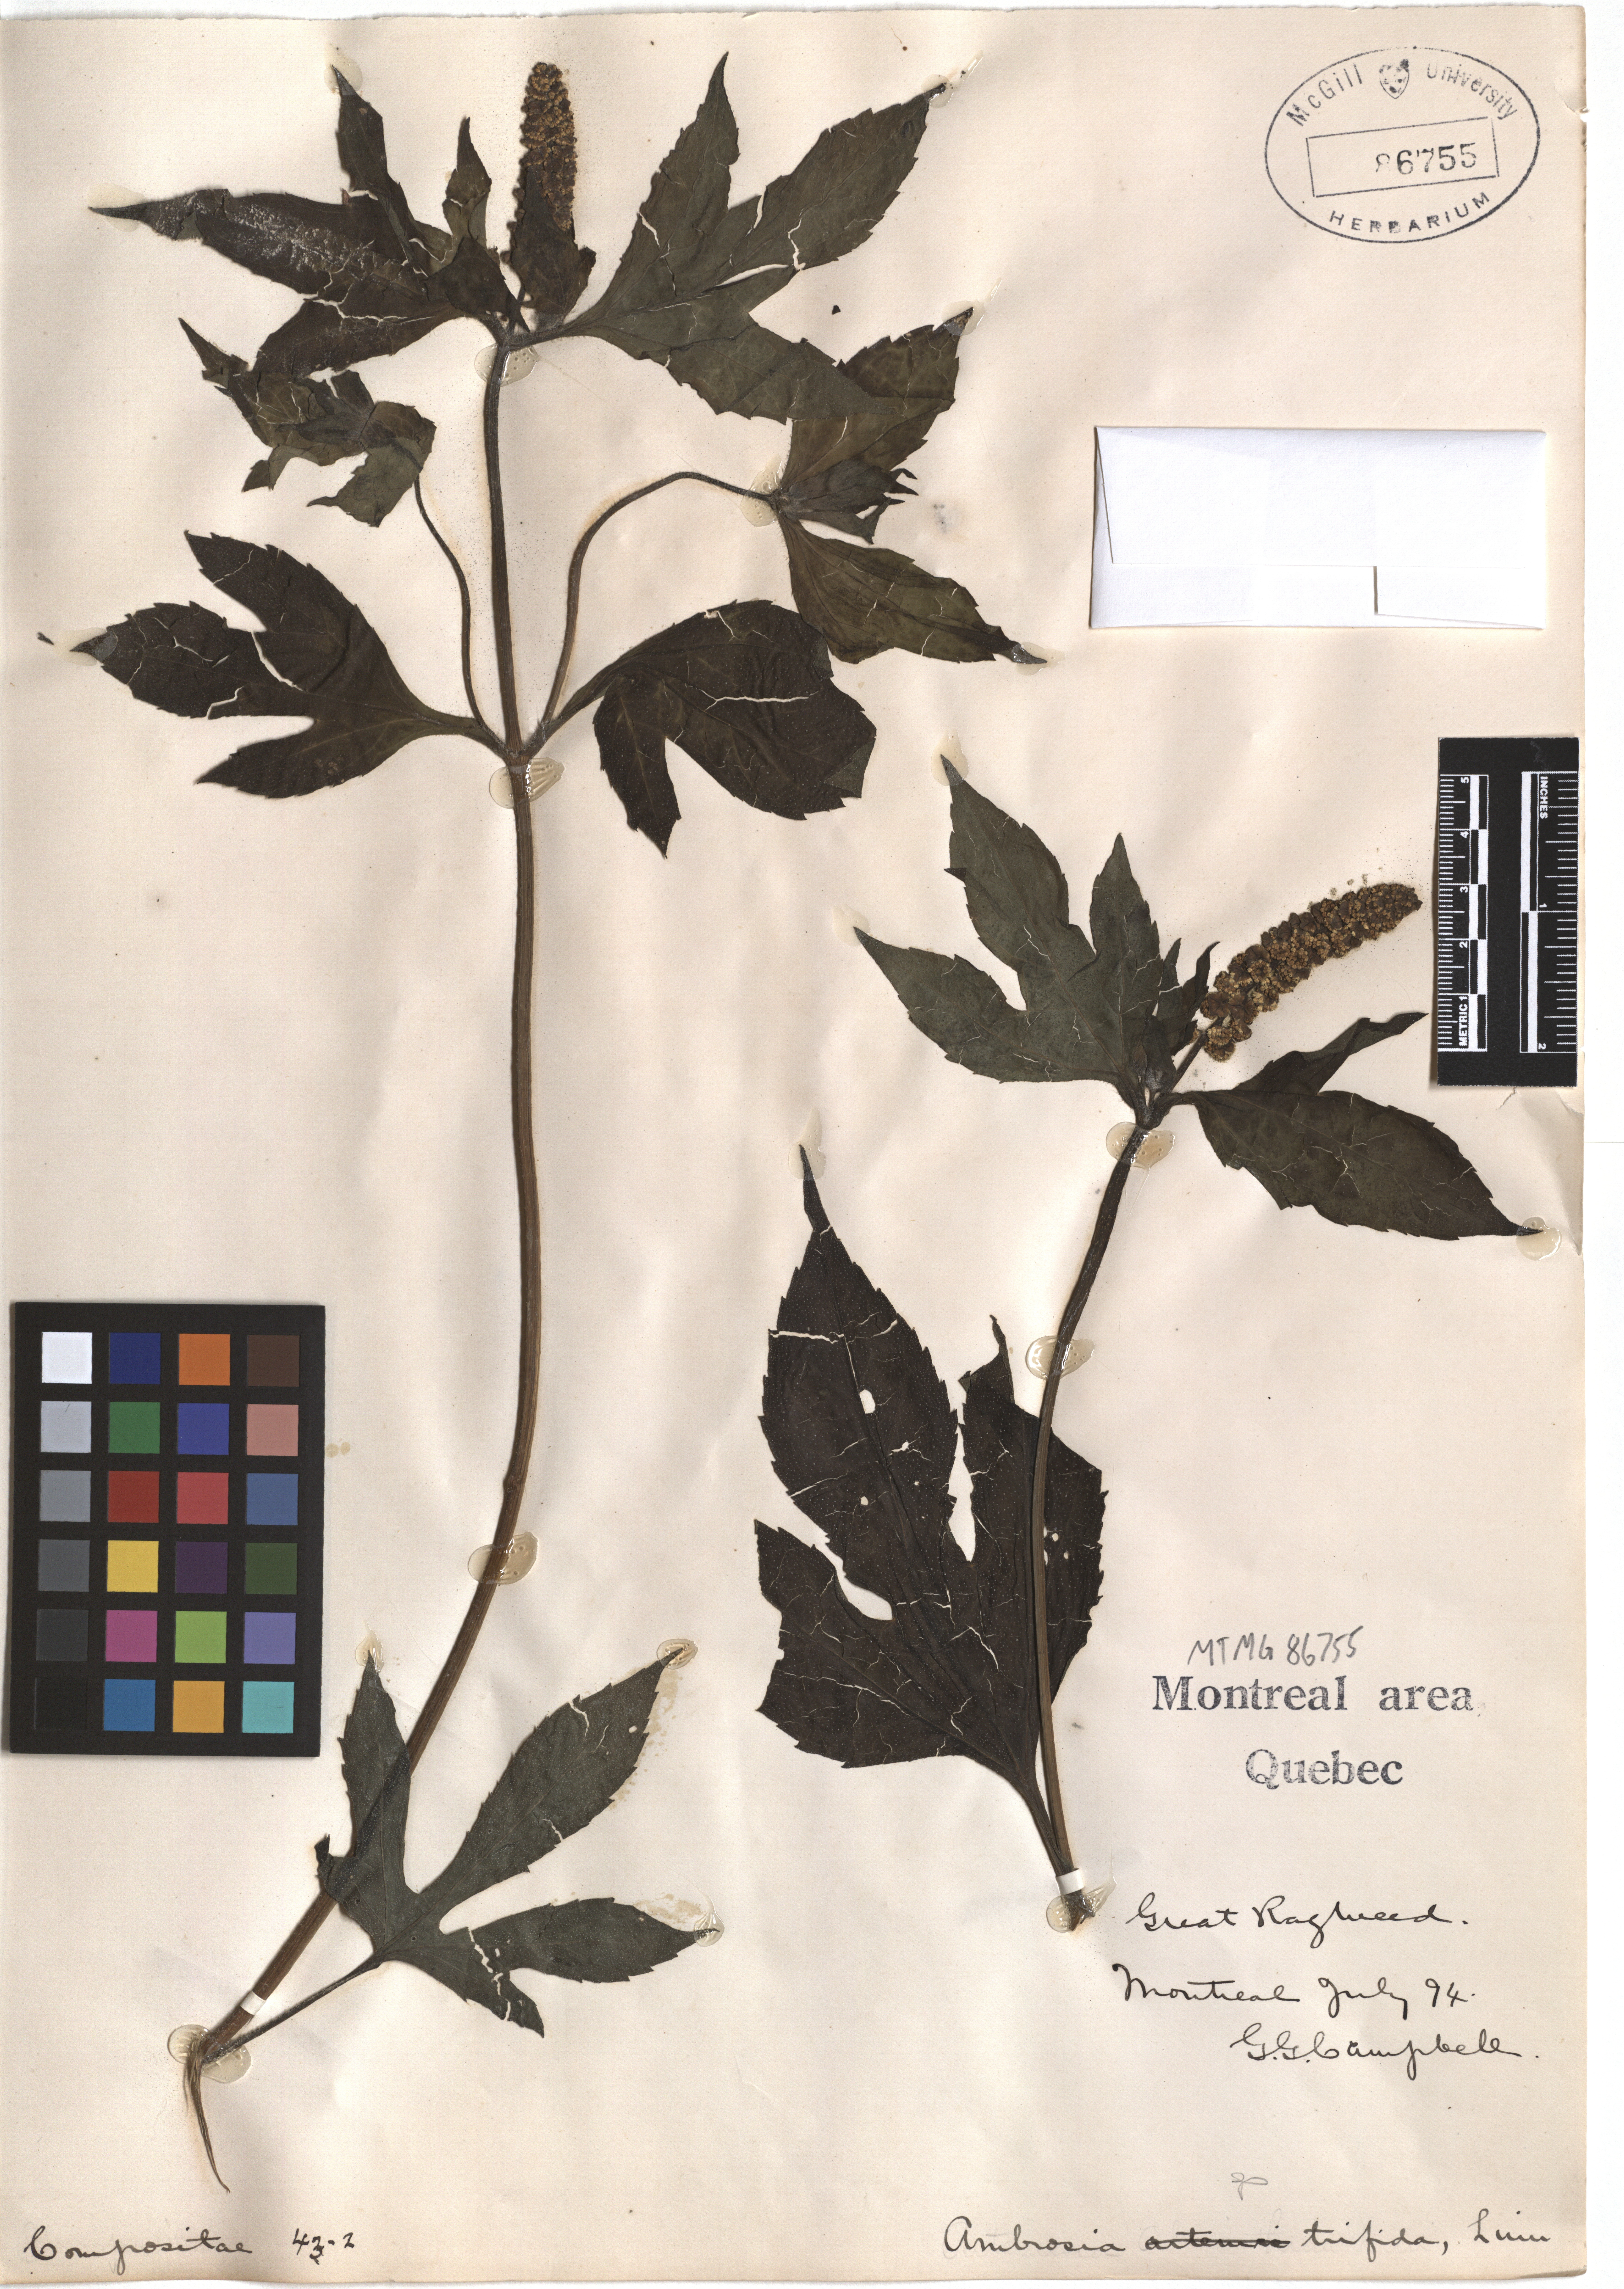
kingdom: Plantae
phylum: Tracheophyta
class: Magnoliopsida
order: Asterales
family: Asteraceae
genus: Ambrosia
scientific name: Ambrosia trifida
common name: Giant ragweed
